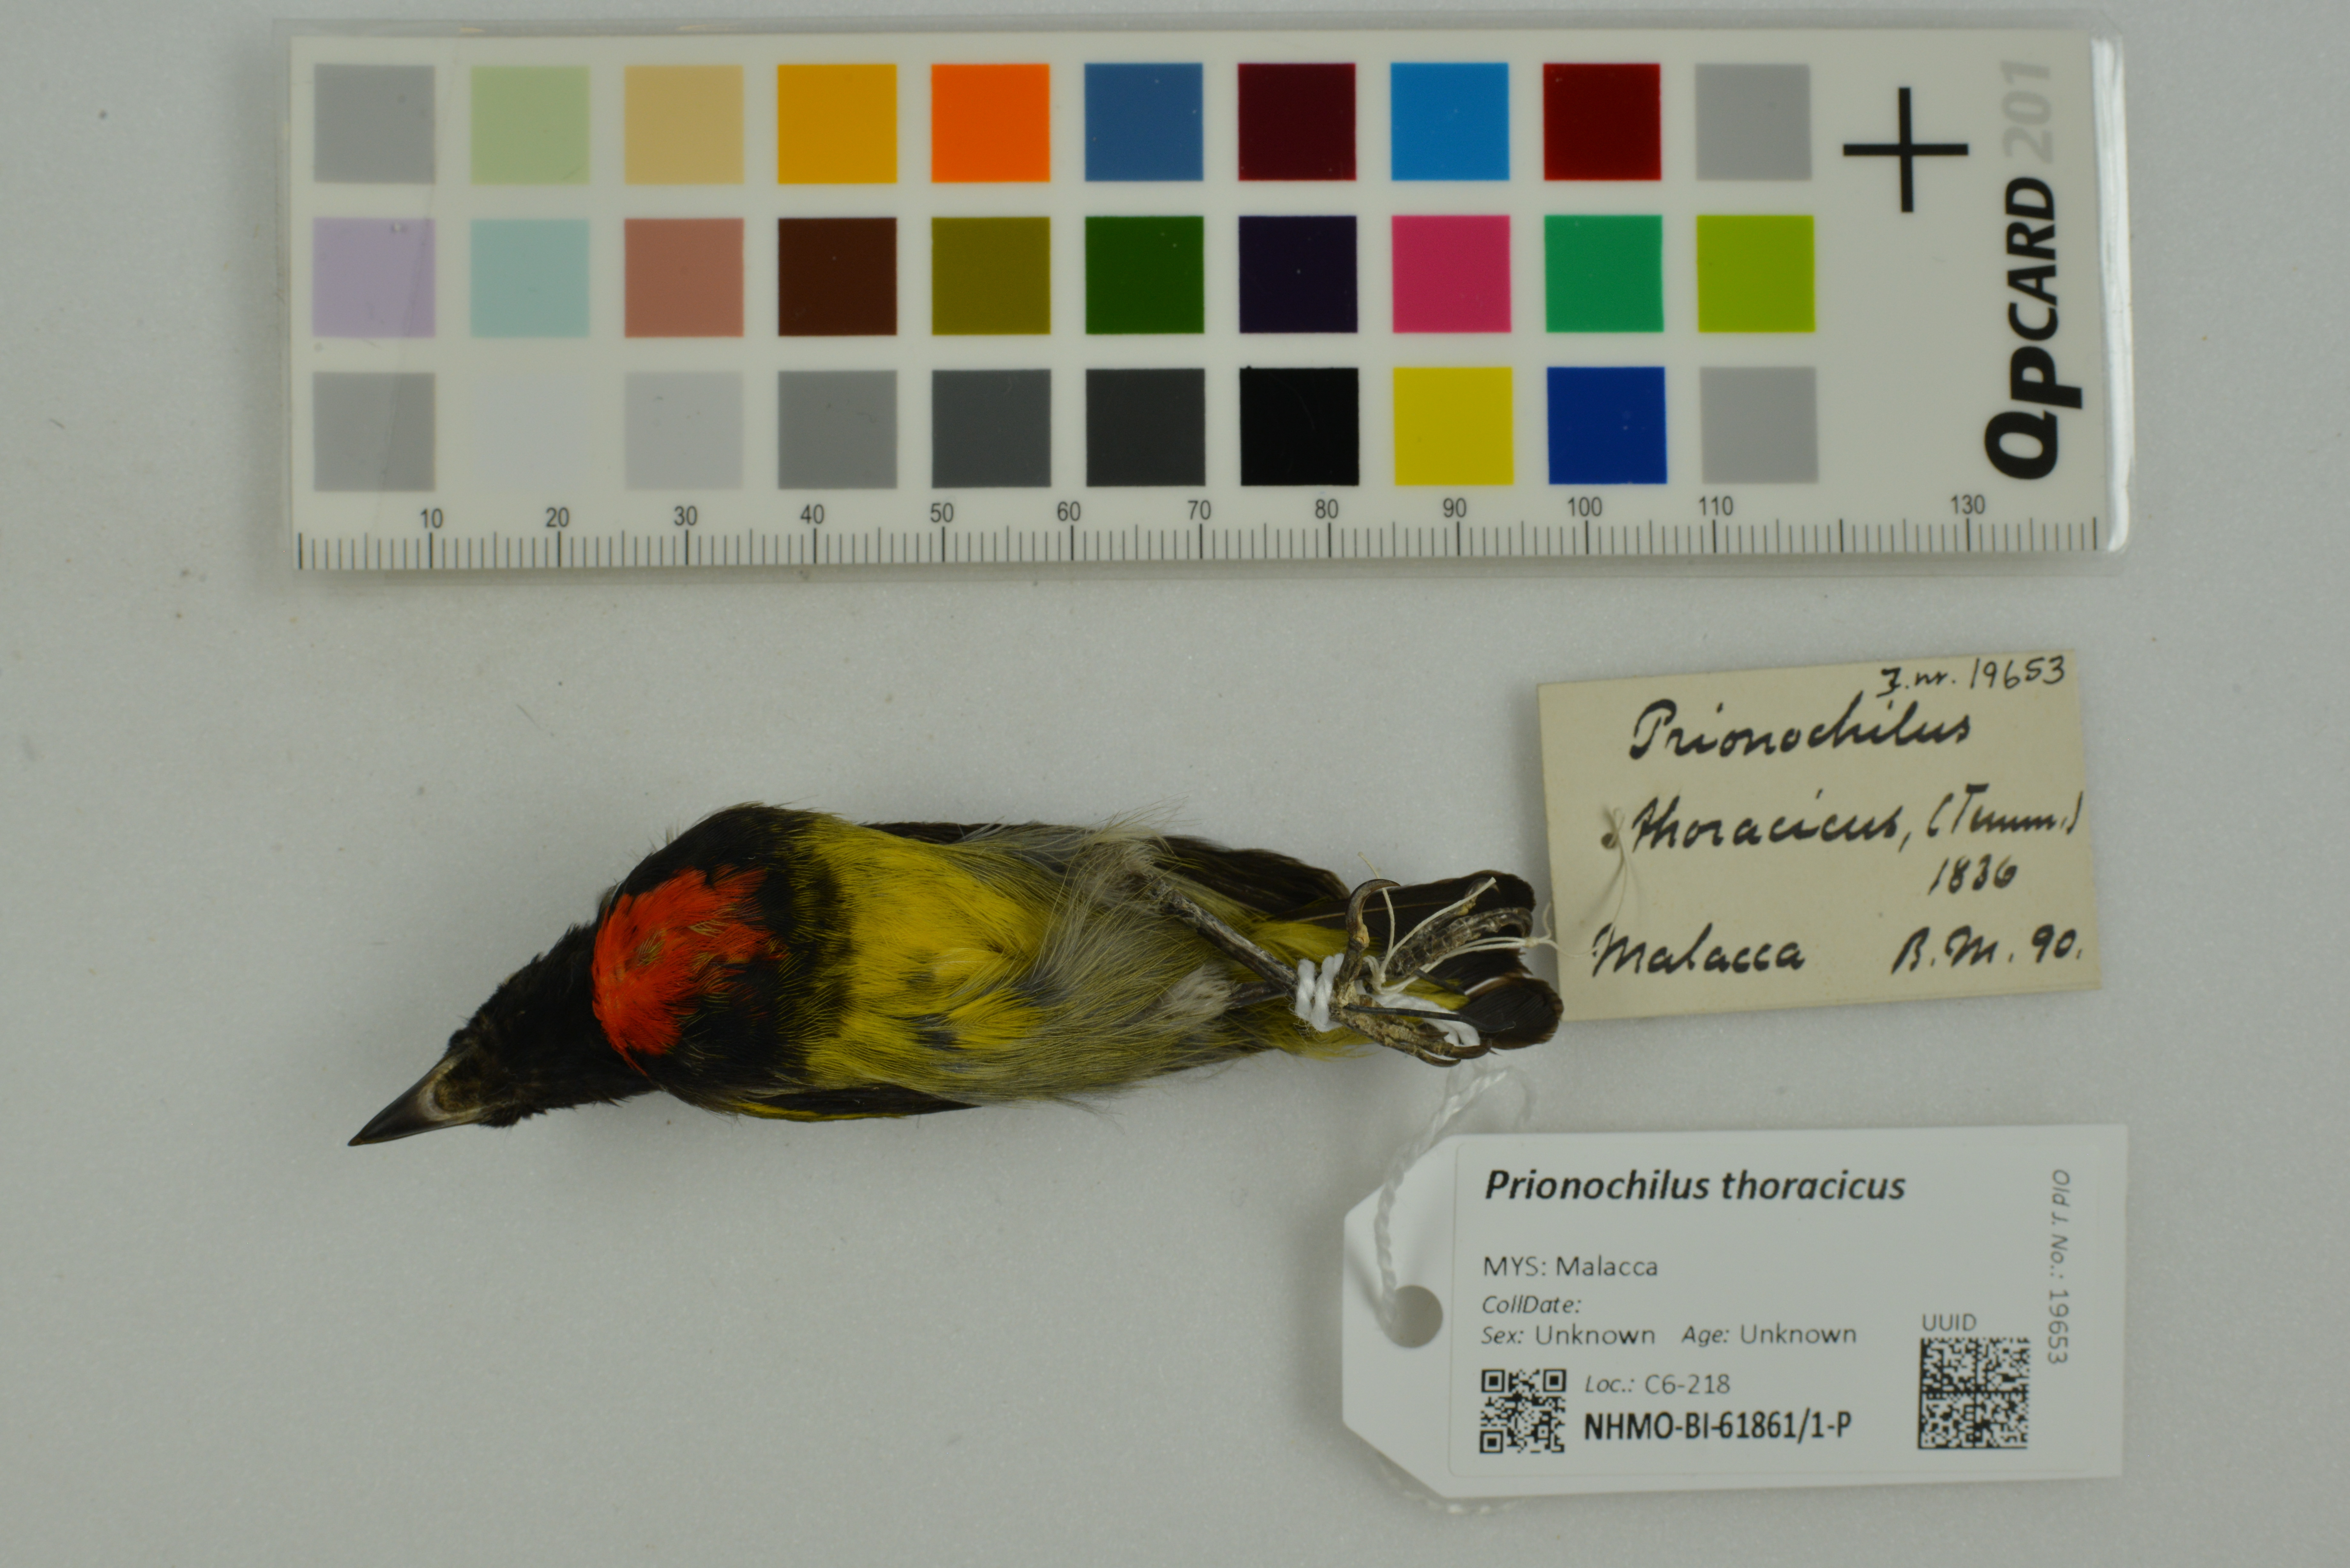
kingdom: Animalia
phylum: Chordata
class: Aves
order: Passeriformes
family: Dicaeidae
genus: Prionochilus
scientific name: Prionochilus thoracicus
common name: Scarlet-breasted flowerpecker
